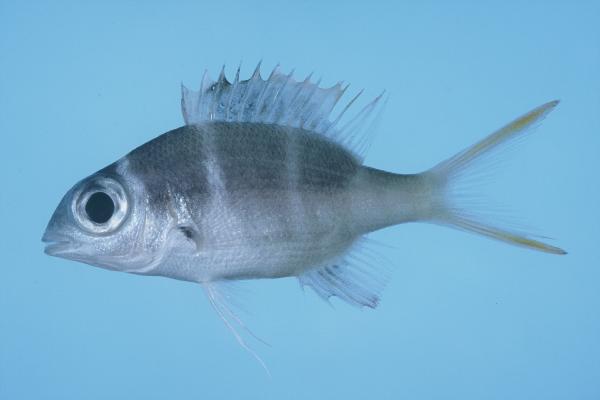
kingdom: Animalia
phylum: Chordata
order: Perciformes
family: Lethrinidae
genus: Monotaxis
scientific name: Monotaxis grandoculis
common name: Bigeye emperor
